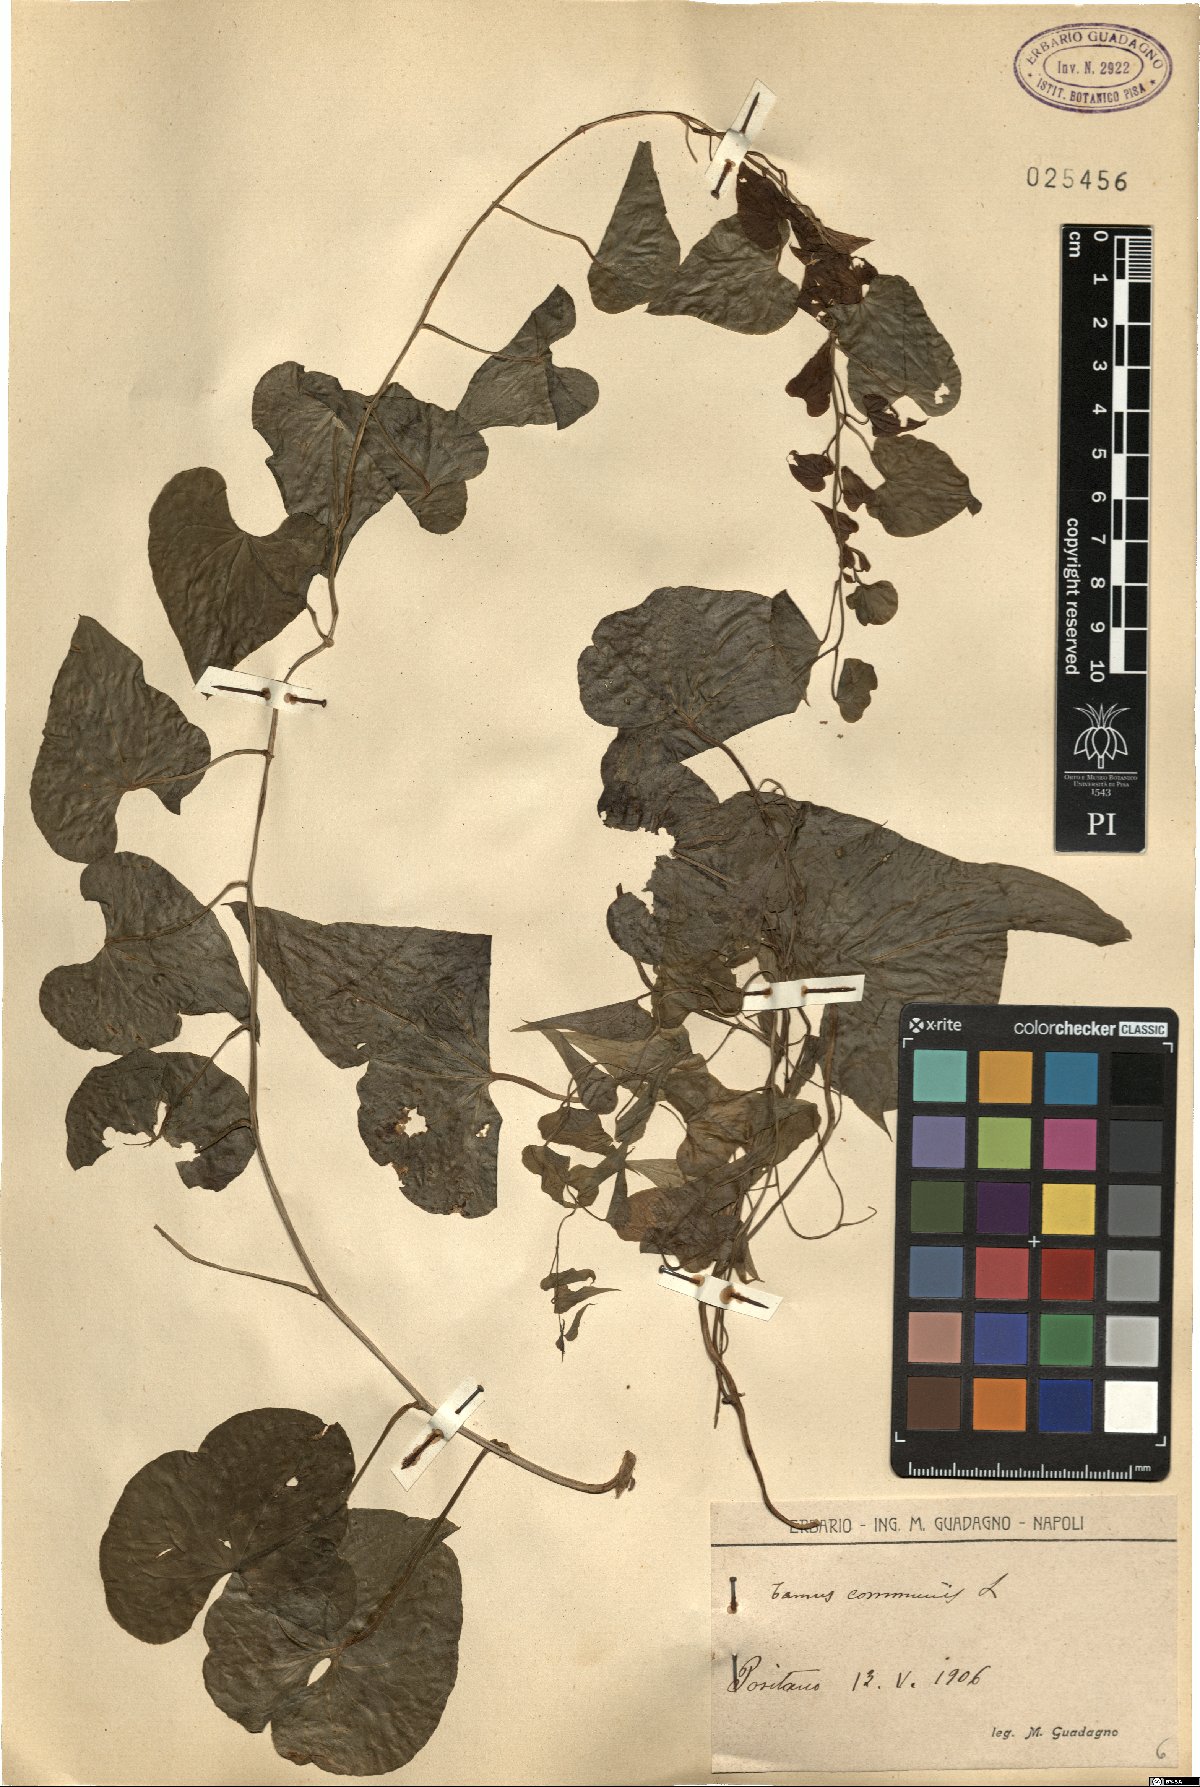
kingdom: Plantae
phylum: Tracheophyta
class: Liliopsida
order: Dioscoreales
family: Dioscoreaceae
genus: Dioscorea
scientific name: Dioscorea communis
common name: Black-bindweed
